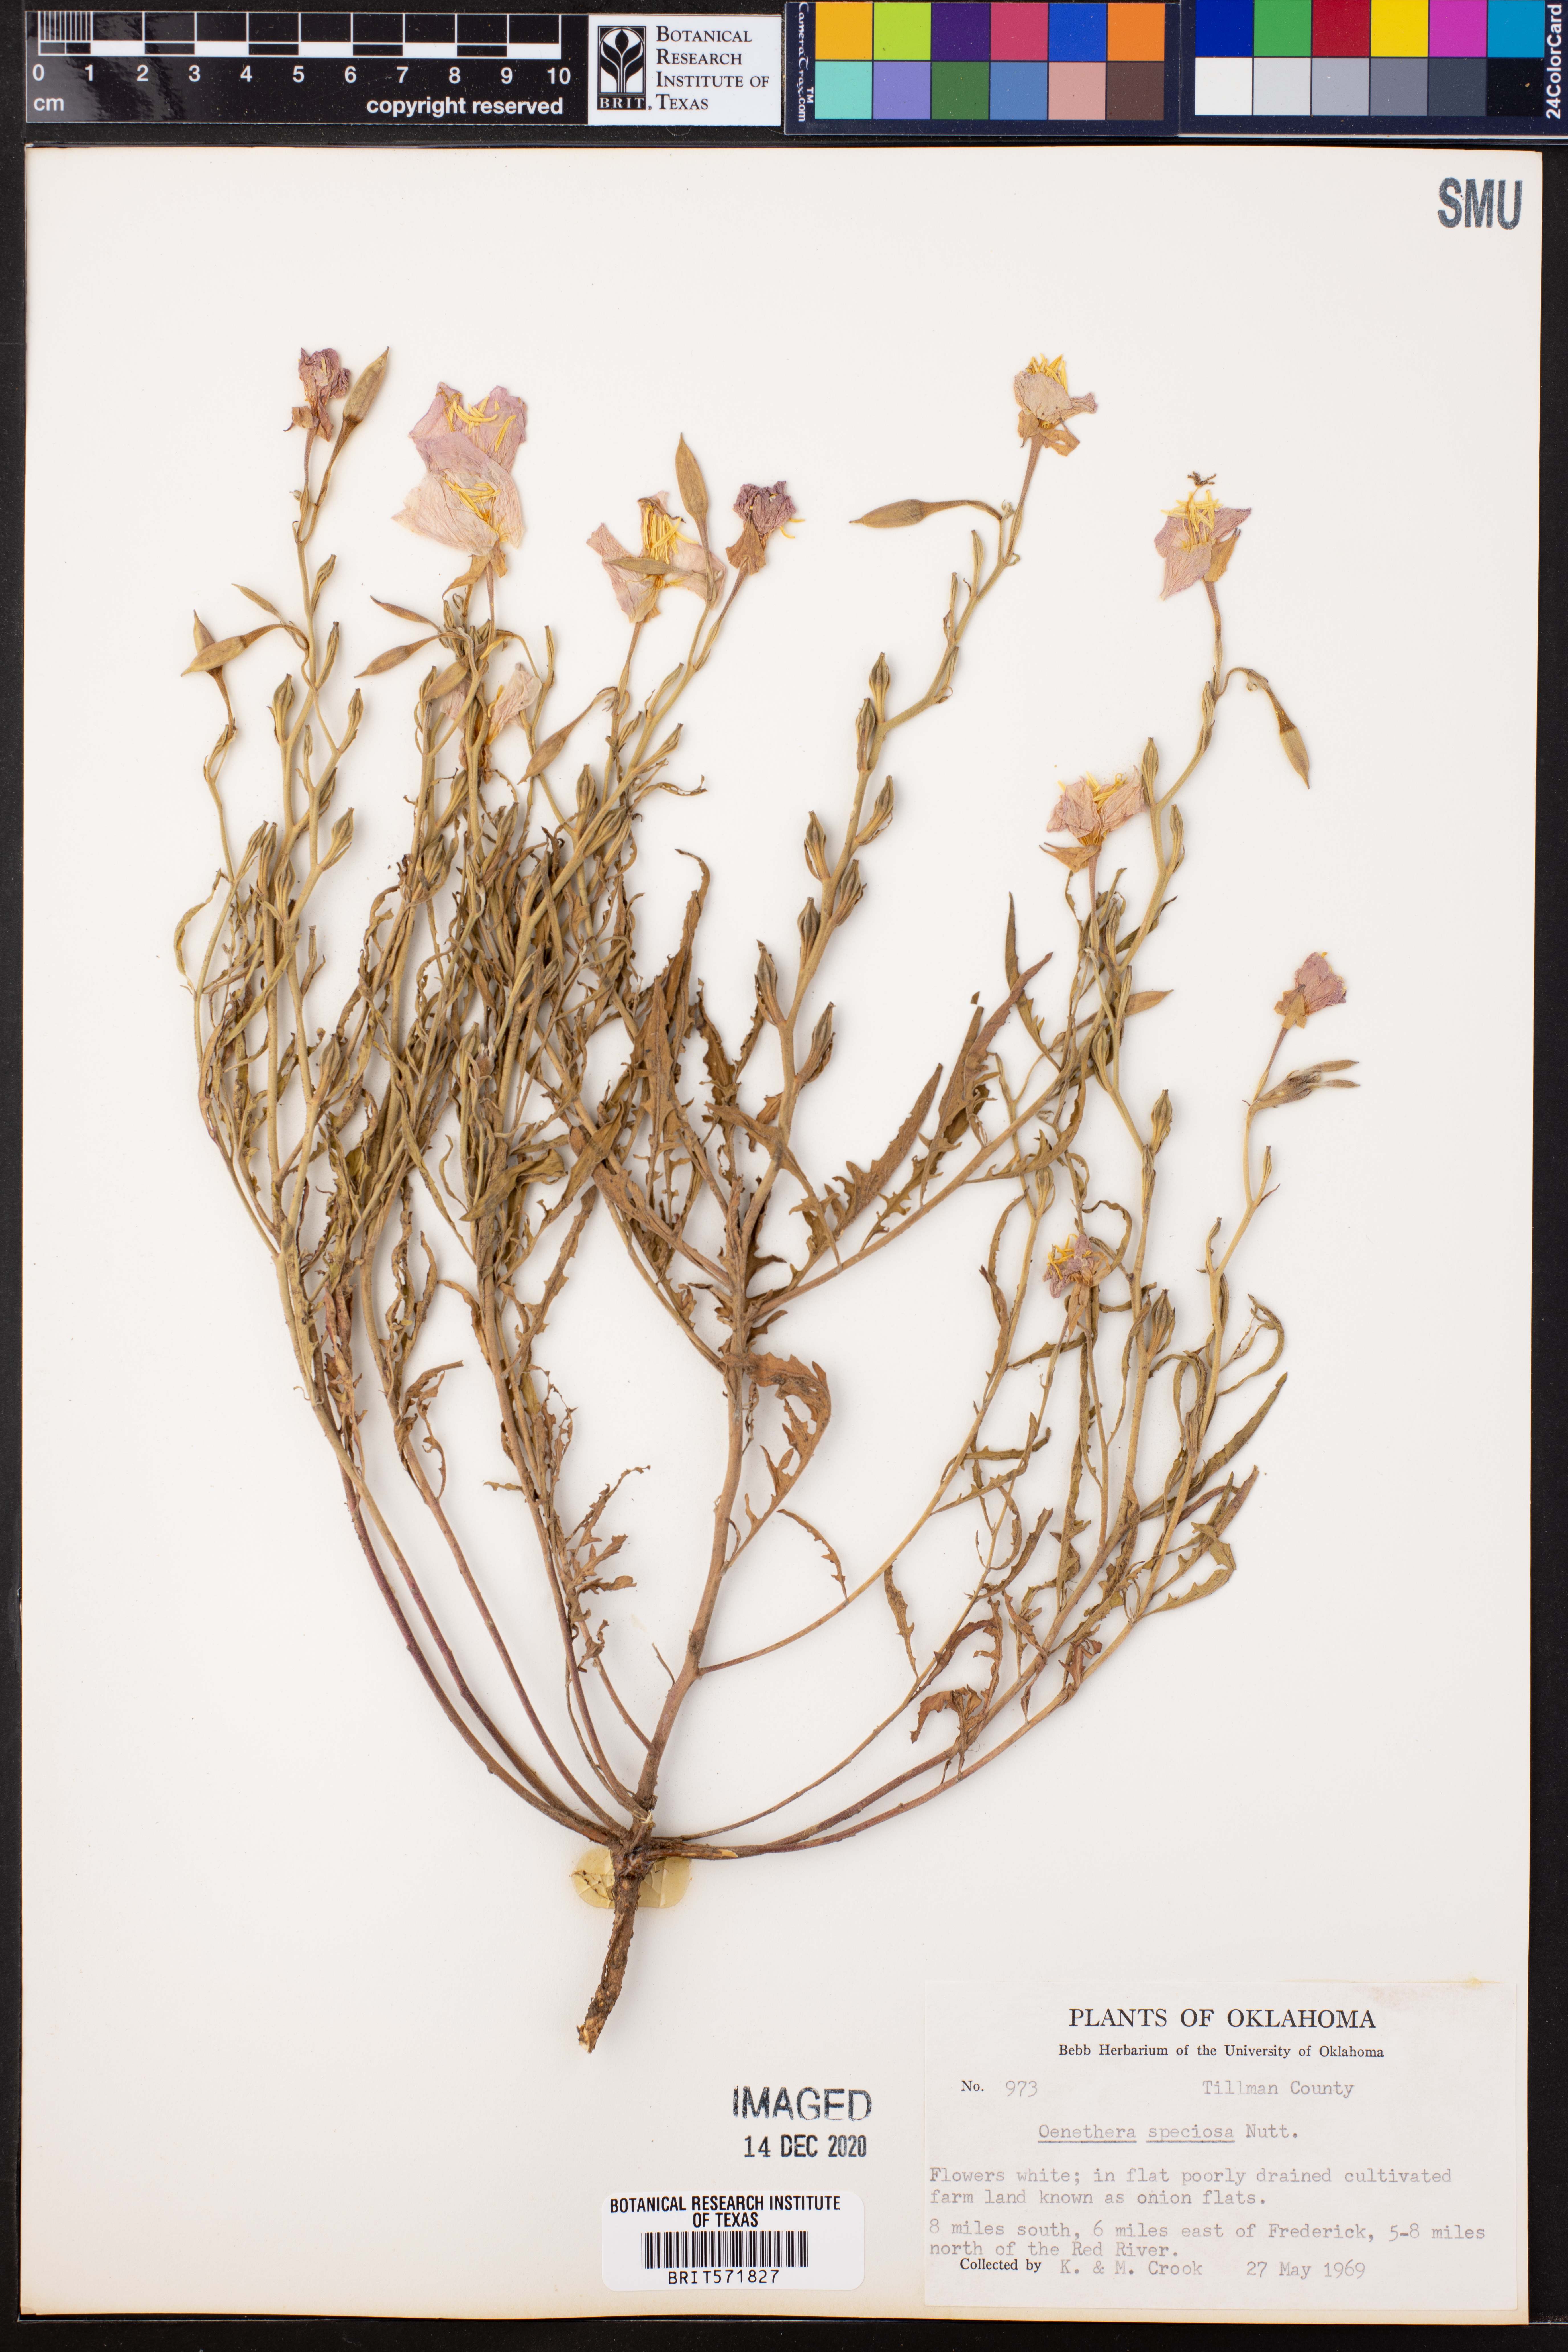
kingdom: Plantae
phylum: Tracheophyta
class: Magnoliopsida
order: Myrtales
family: Onagraceae
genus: Oenothera
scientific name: Oenothera speciosa
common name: White evening-primrose
